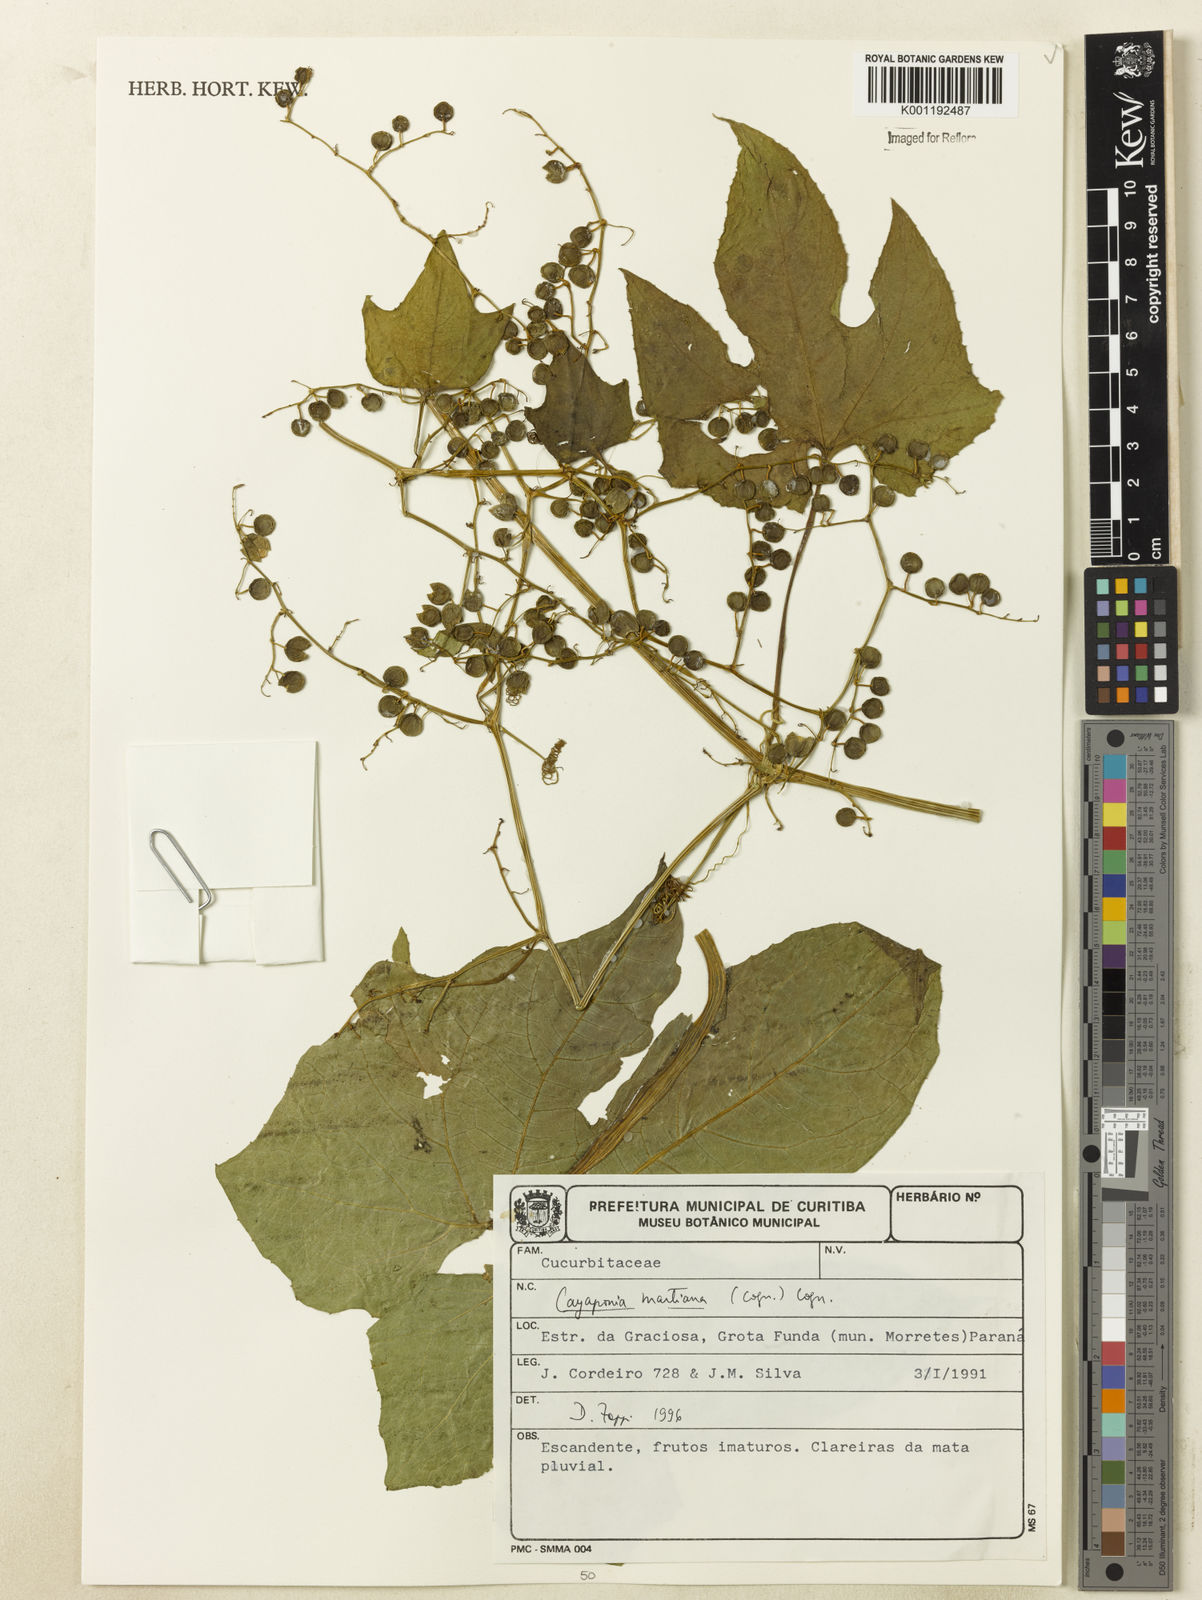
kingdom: Plantae
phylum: Tracheophyta
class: Magnoliopsida
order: Cucurbitales
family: Cucurbitaceae
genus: Cayaponia
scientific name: Cayaponia martiana
